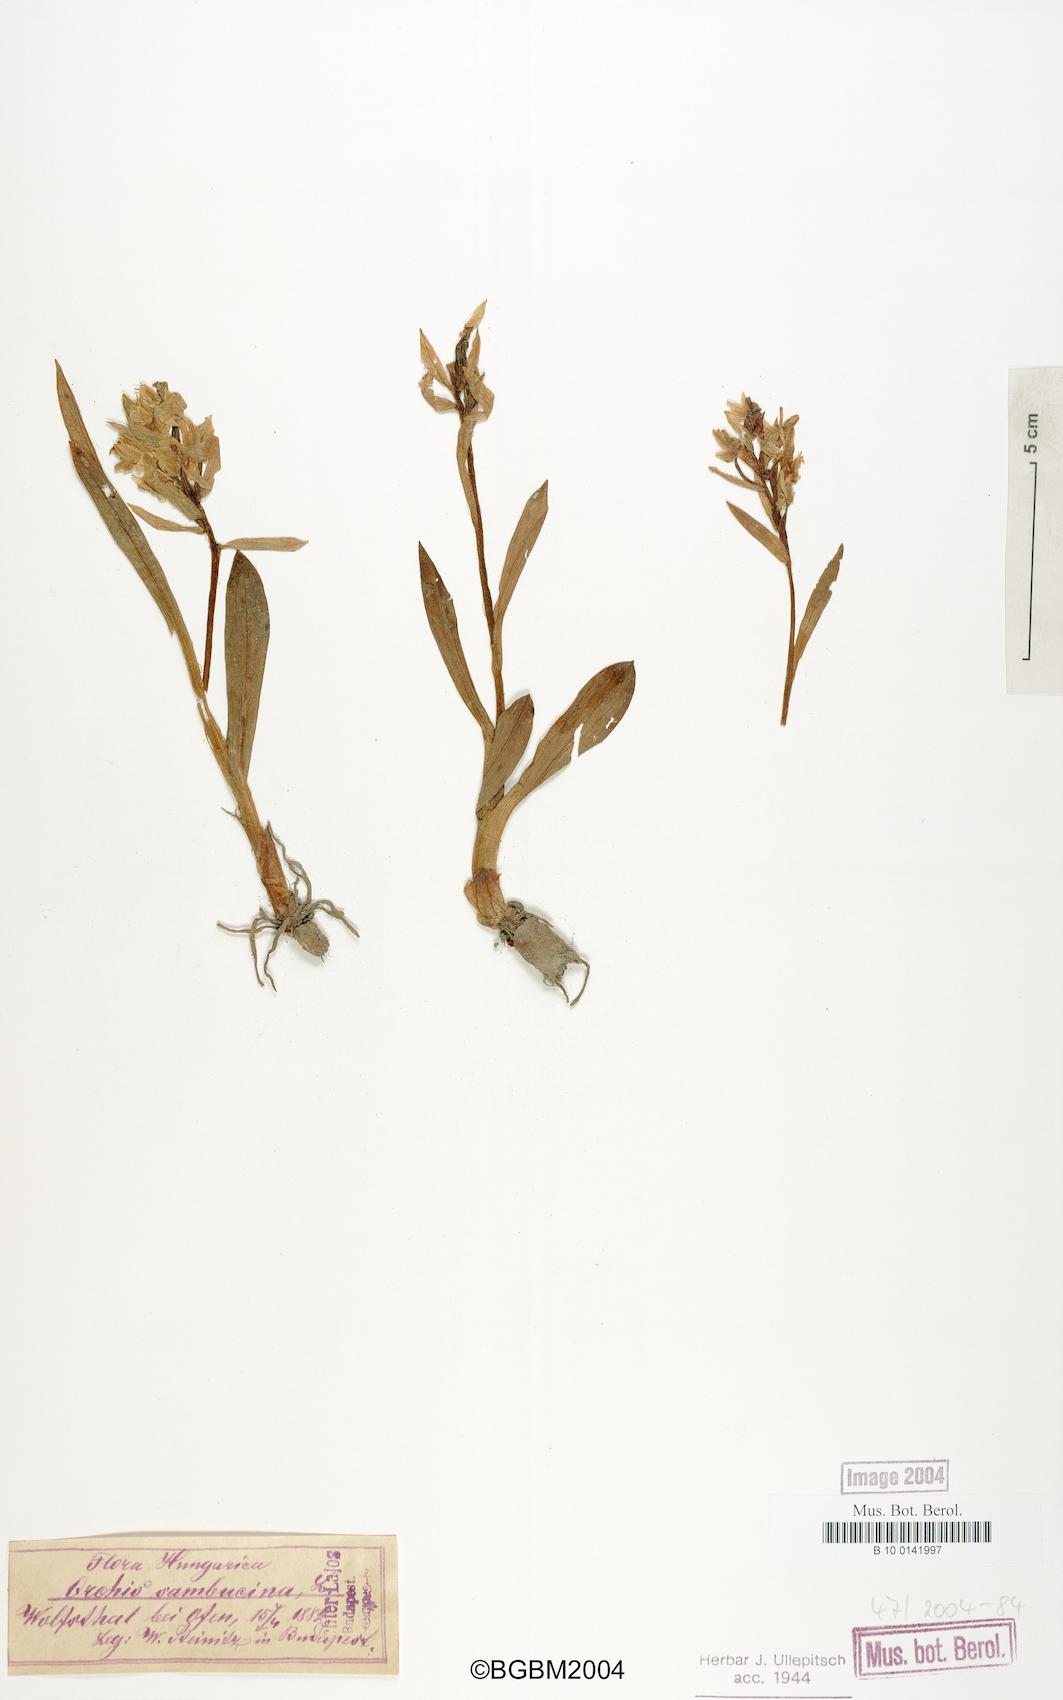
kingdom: Plantae
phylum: Tracheophyta
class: Liliopsida
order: Asparagales
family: Orchidaceae
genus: Dactylorhiza
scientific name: Dactylorhiza sambucina
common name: Elder-flowered orchid
